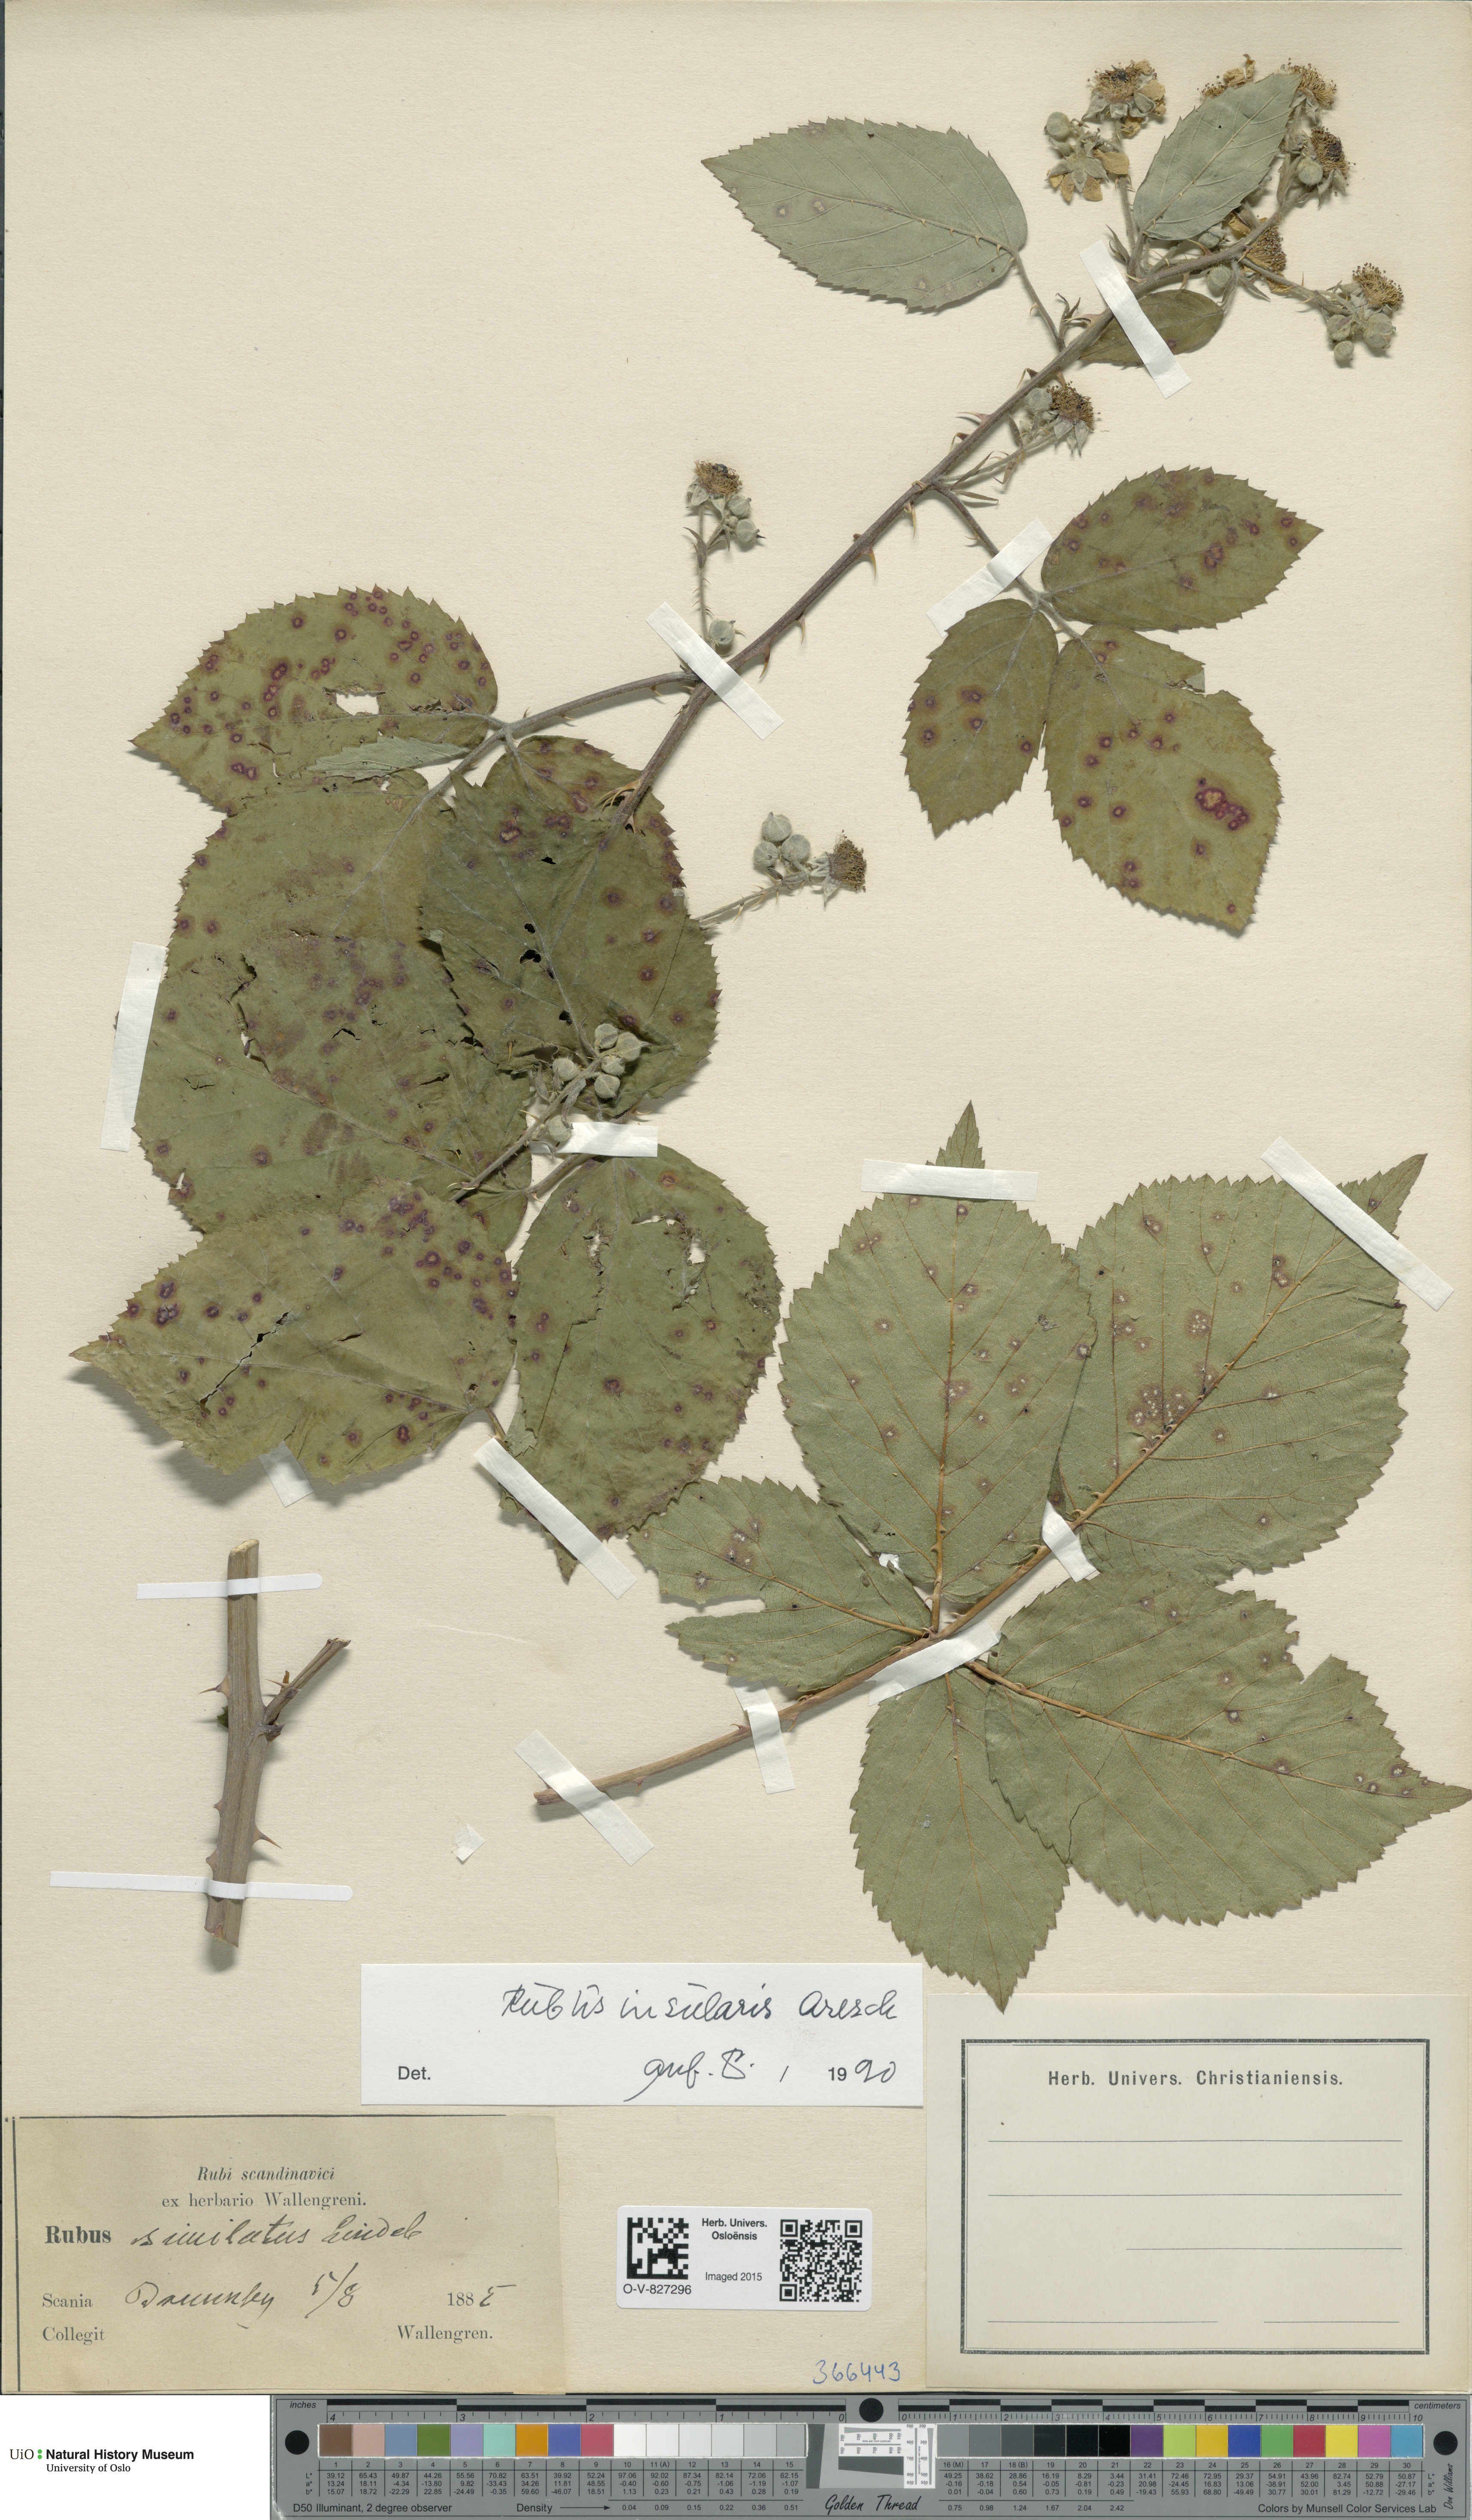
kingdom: Plantae
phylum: Tracheophyta
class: Magnoliopsida
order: Rosales
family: Rosaceae
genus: Rubus
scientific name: Rubus insularis
